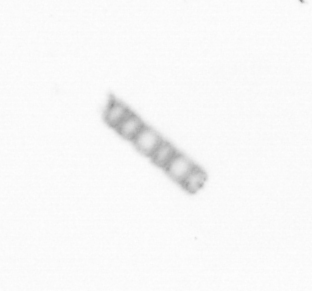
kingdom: Chromista
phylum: Ochrophyta
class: Bacillariophyceae
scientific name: Bacillariophyceae
